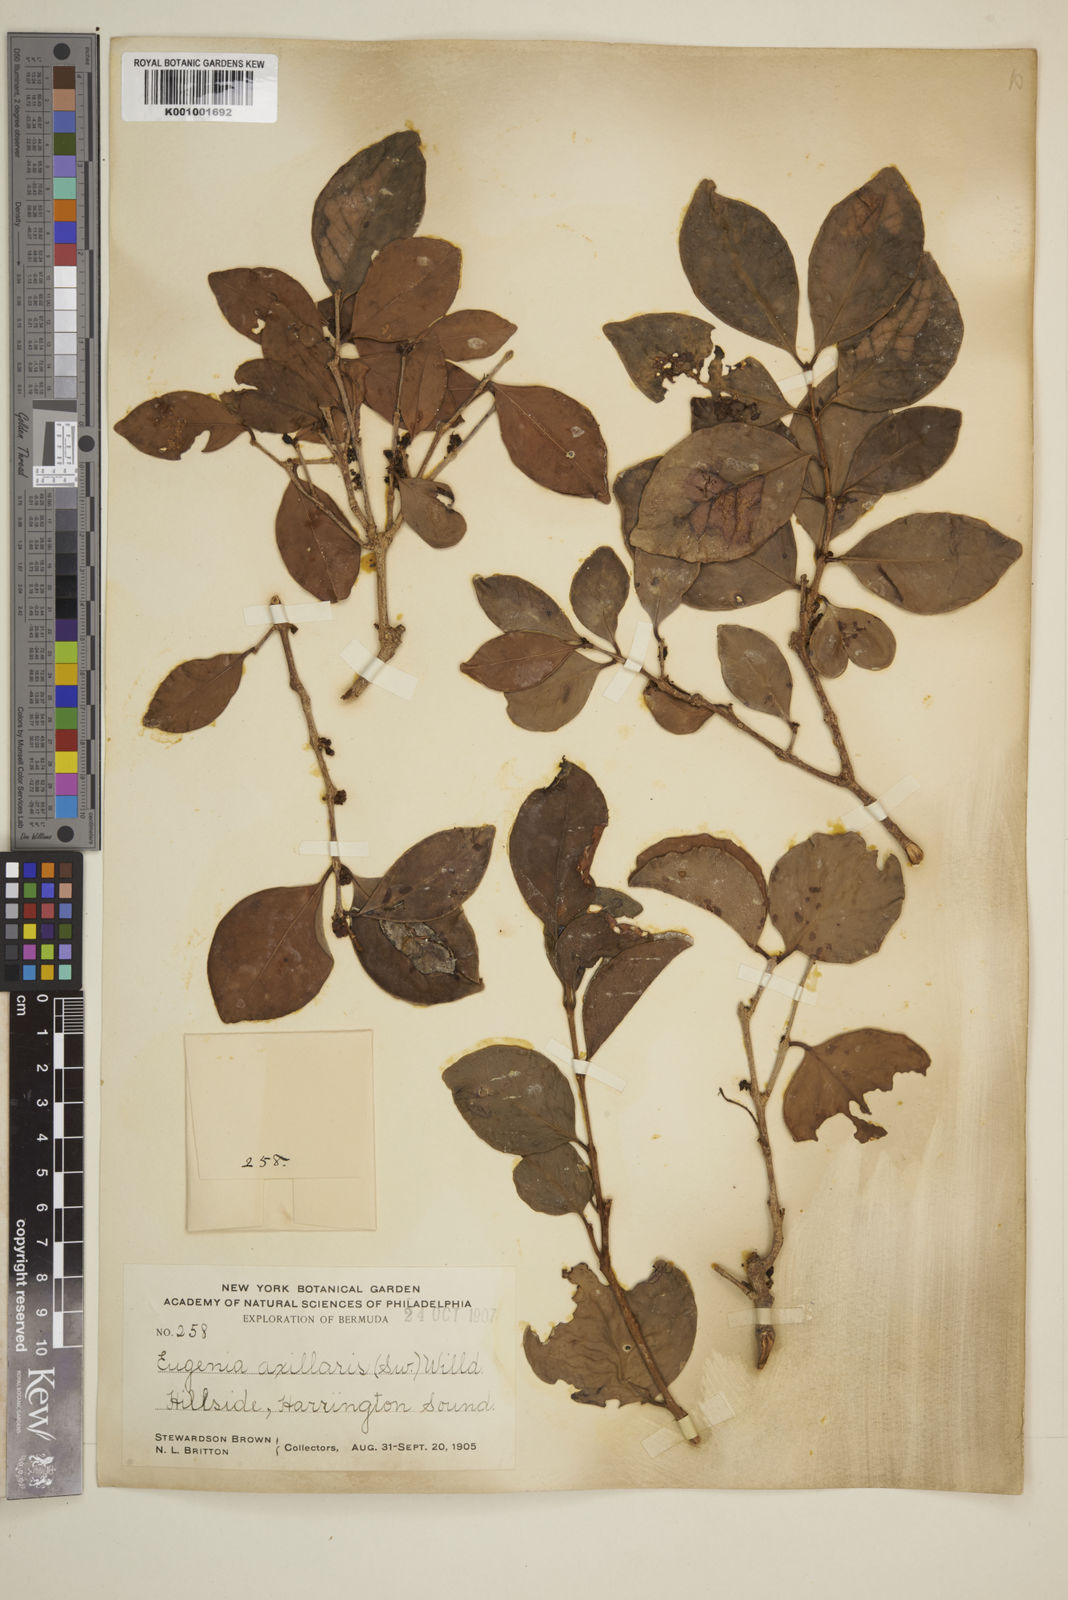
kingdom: Plantae
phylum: Tracheophyta
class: Magnoliopsida
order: Myrtales
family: Myrtaceae
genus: Eugenia
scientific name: Eugenia axillaris
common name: Choaky berry
